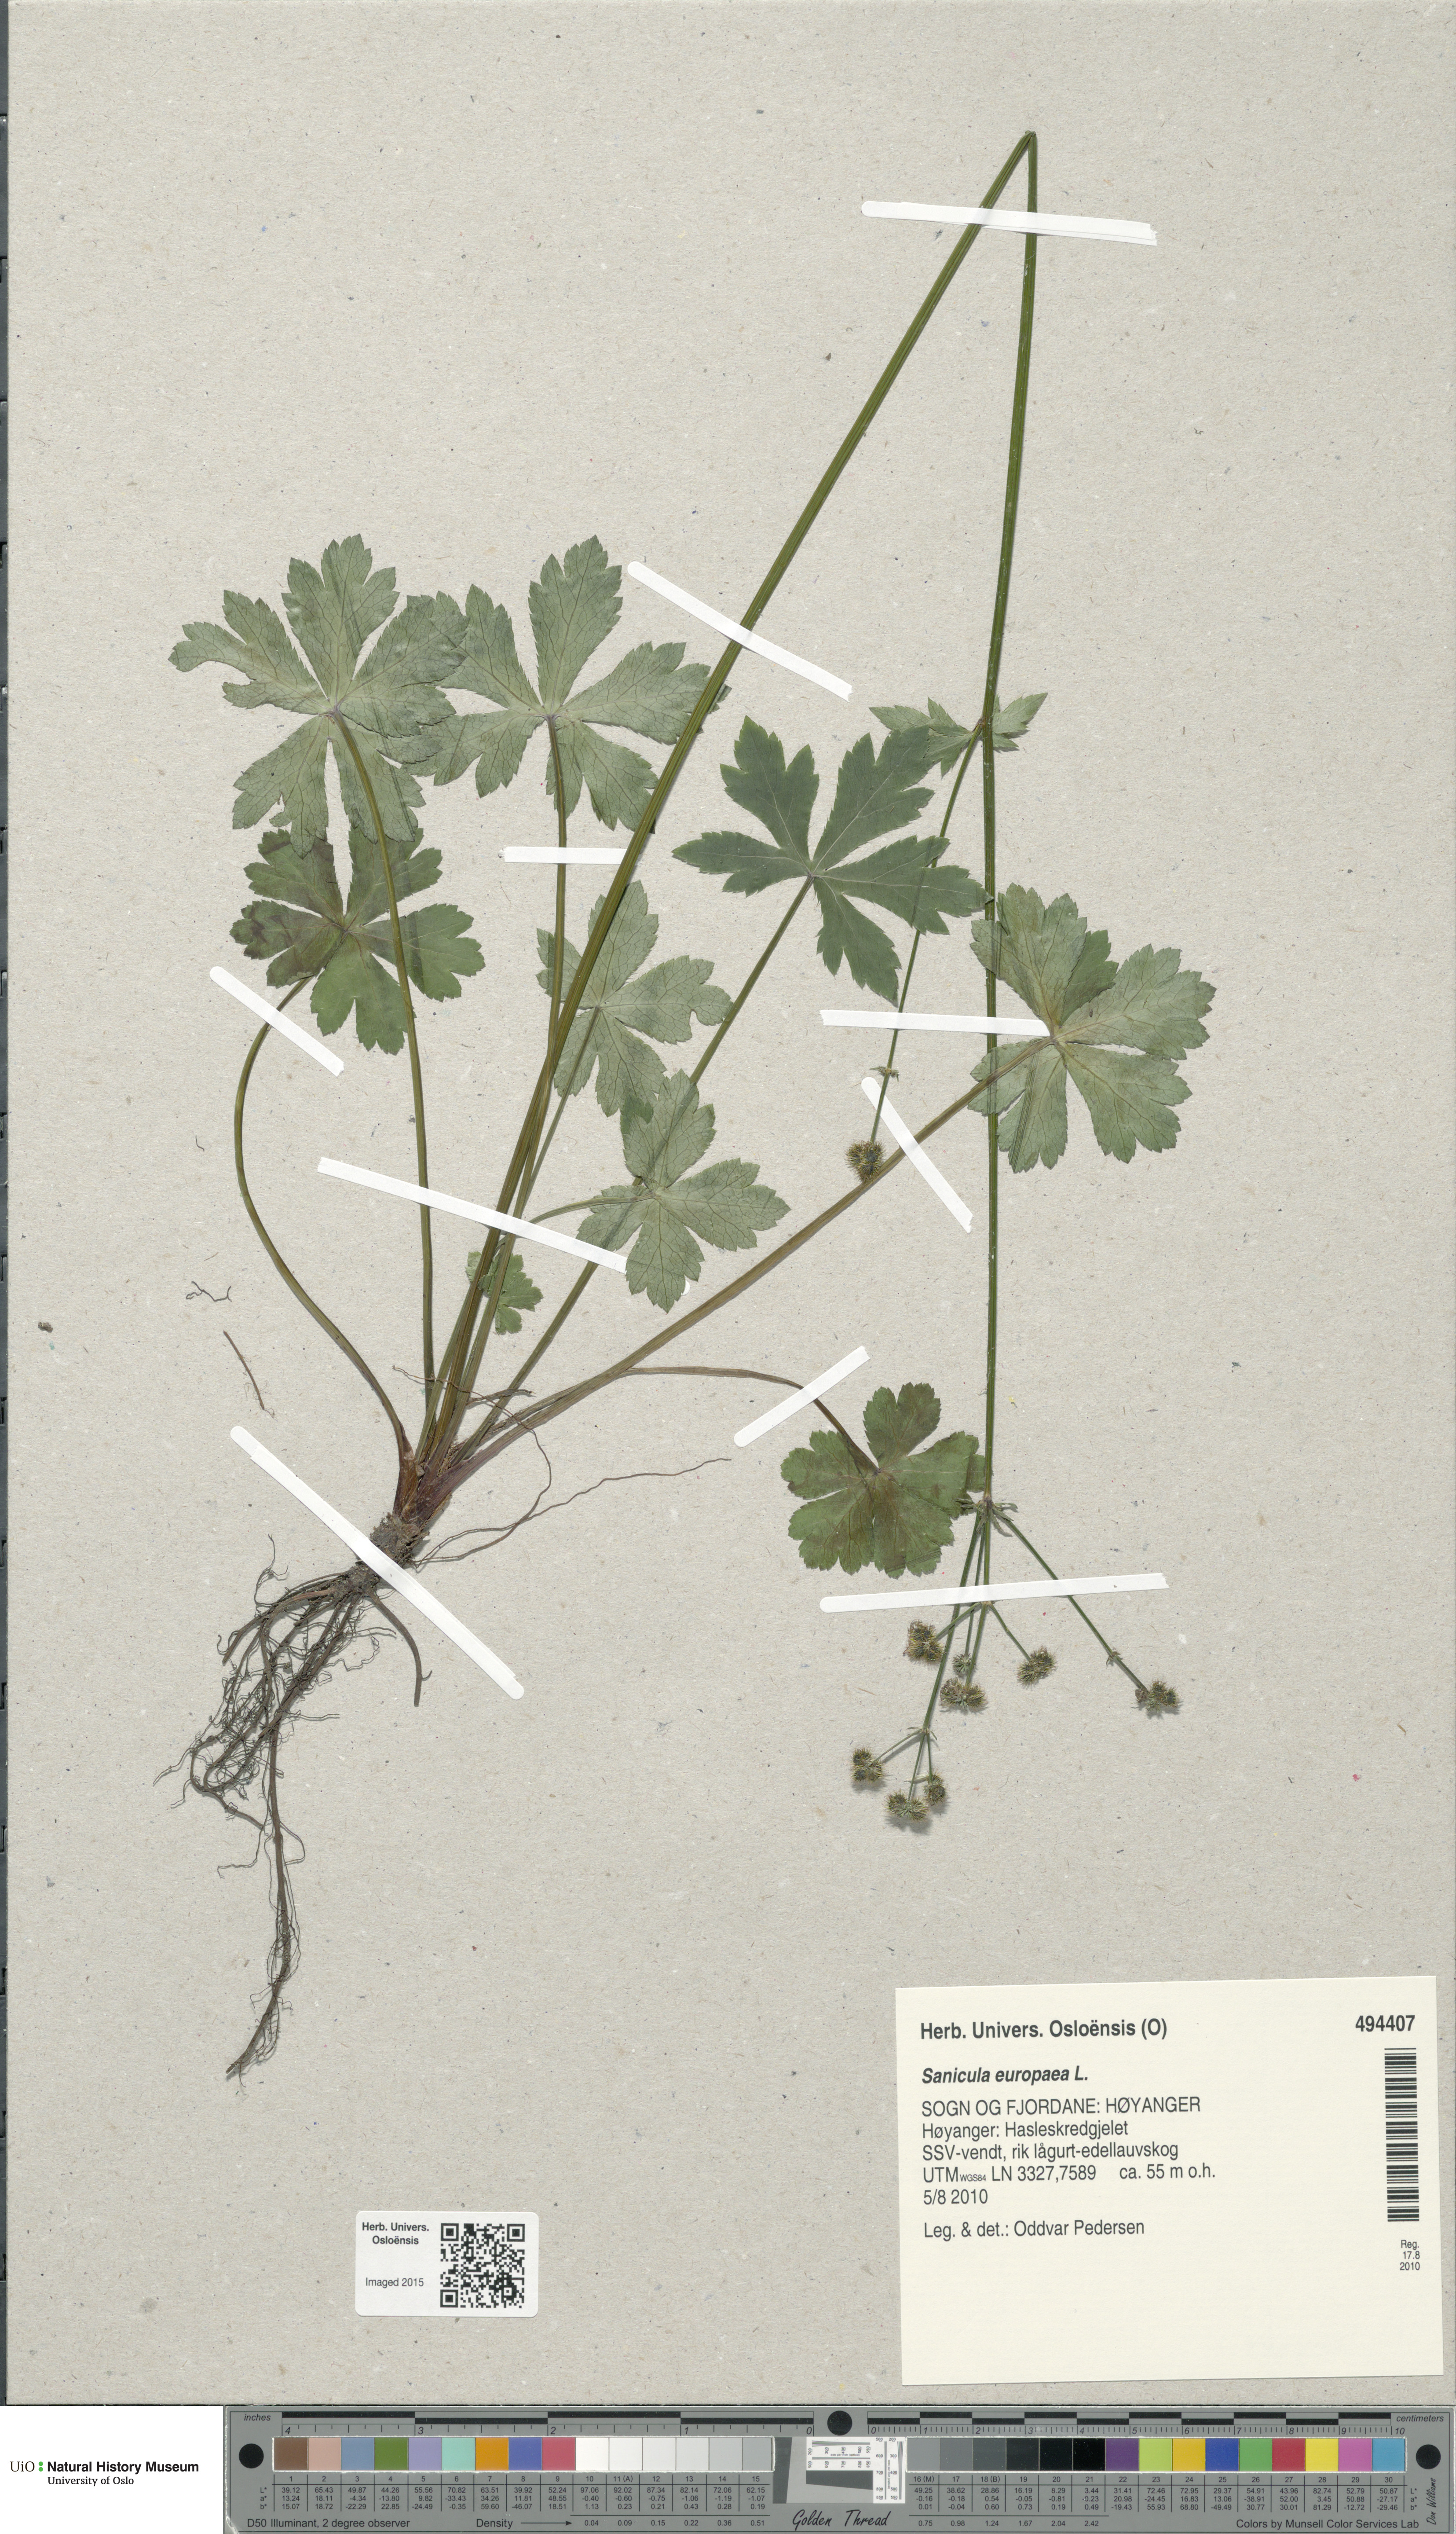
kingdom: Plantae
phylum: Tracheophyta
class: Magnoliopsida
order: Apiales
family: Apiaceae
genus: Sanicula
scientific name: Sanicula europaea
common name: Sanicle
